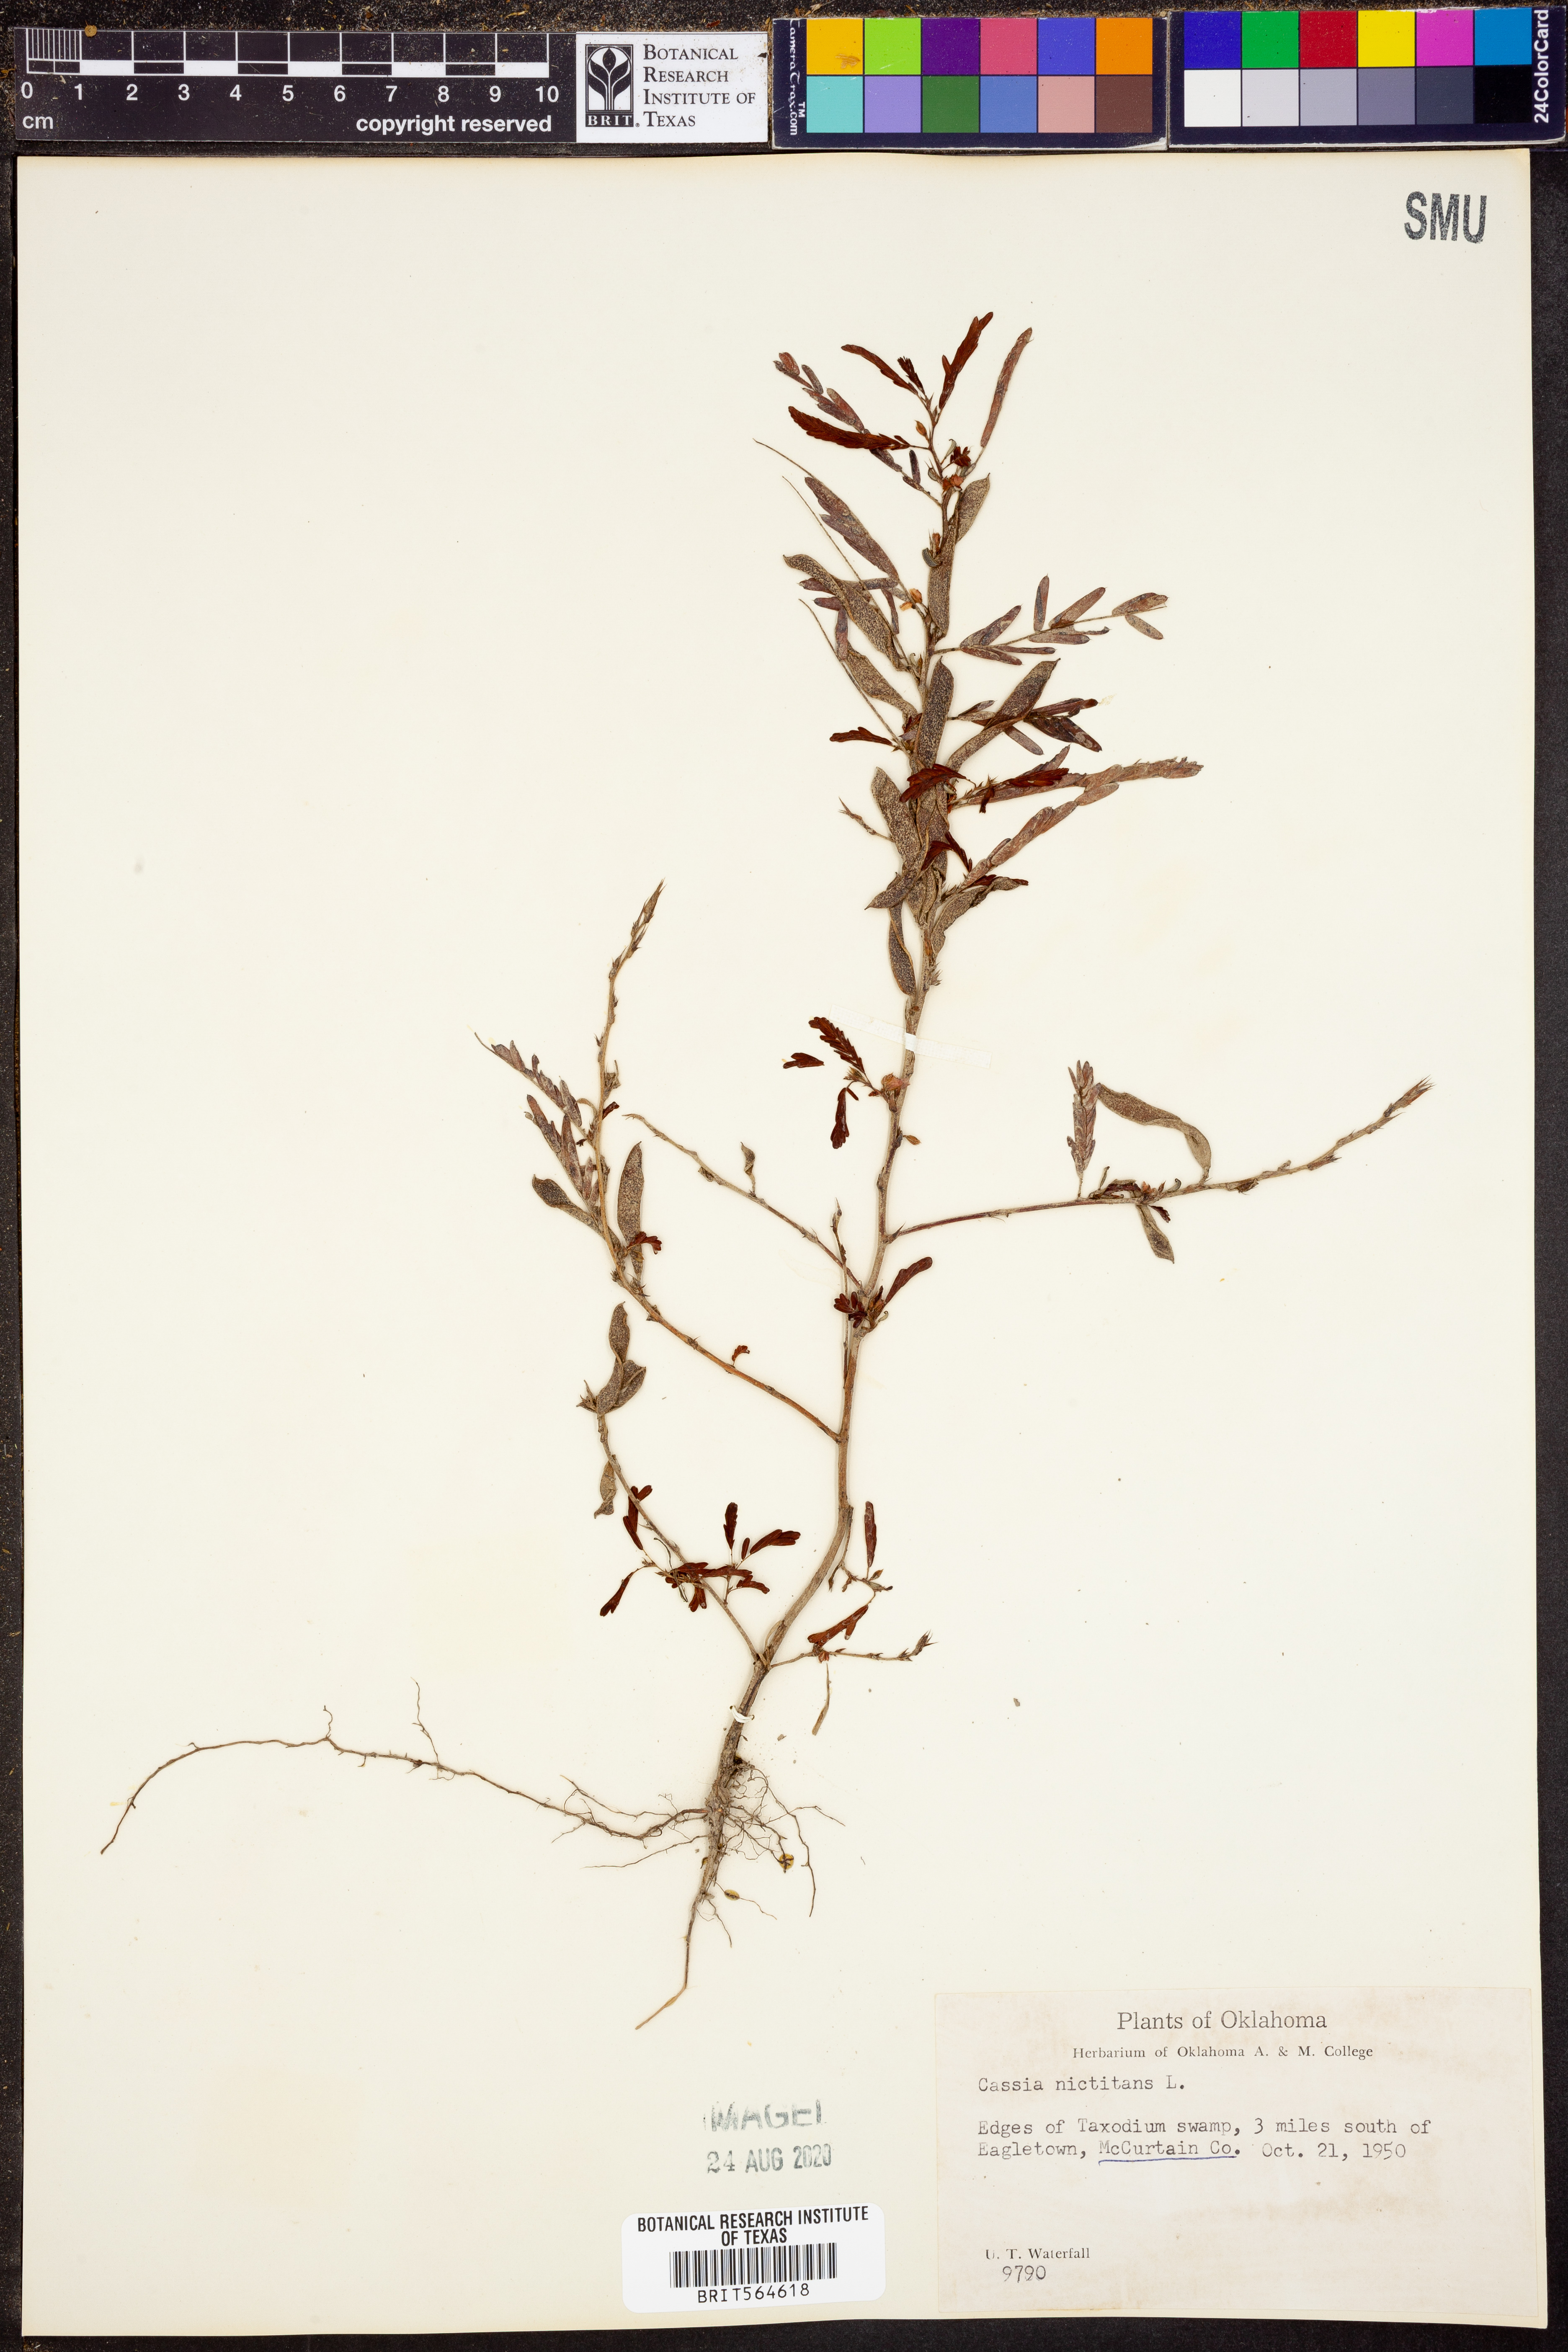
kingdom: Plantae
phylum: Tracheophyta
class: Magnoliopsida
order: Fabales
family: Fabaceae
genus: Chamaecrista
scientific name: Chamaecrista nictitans
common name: Sensitive cassia
